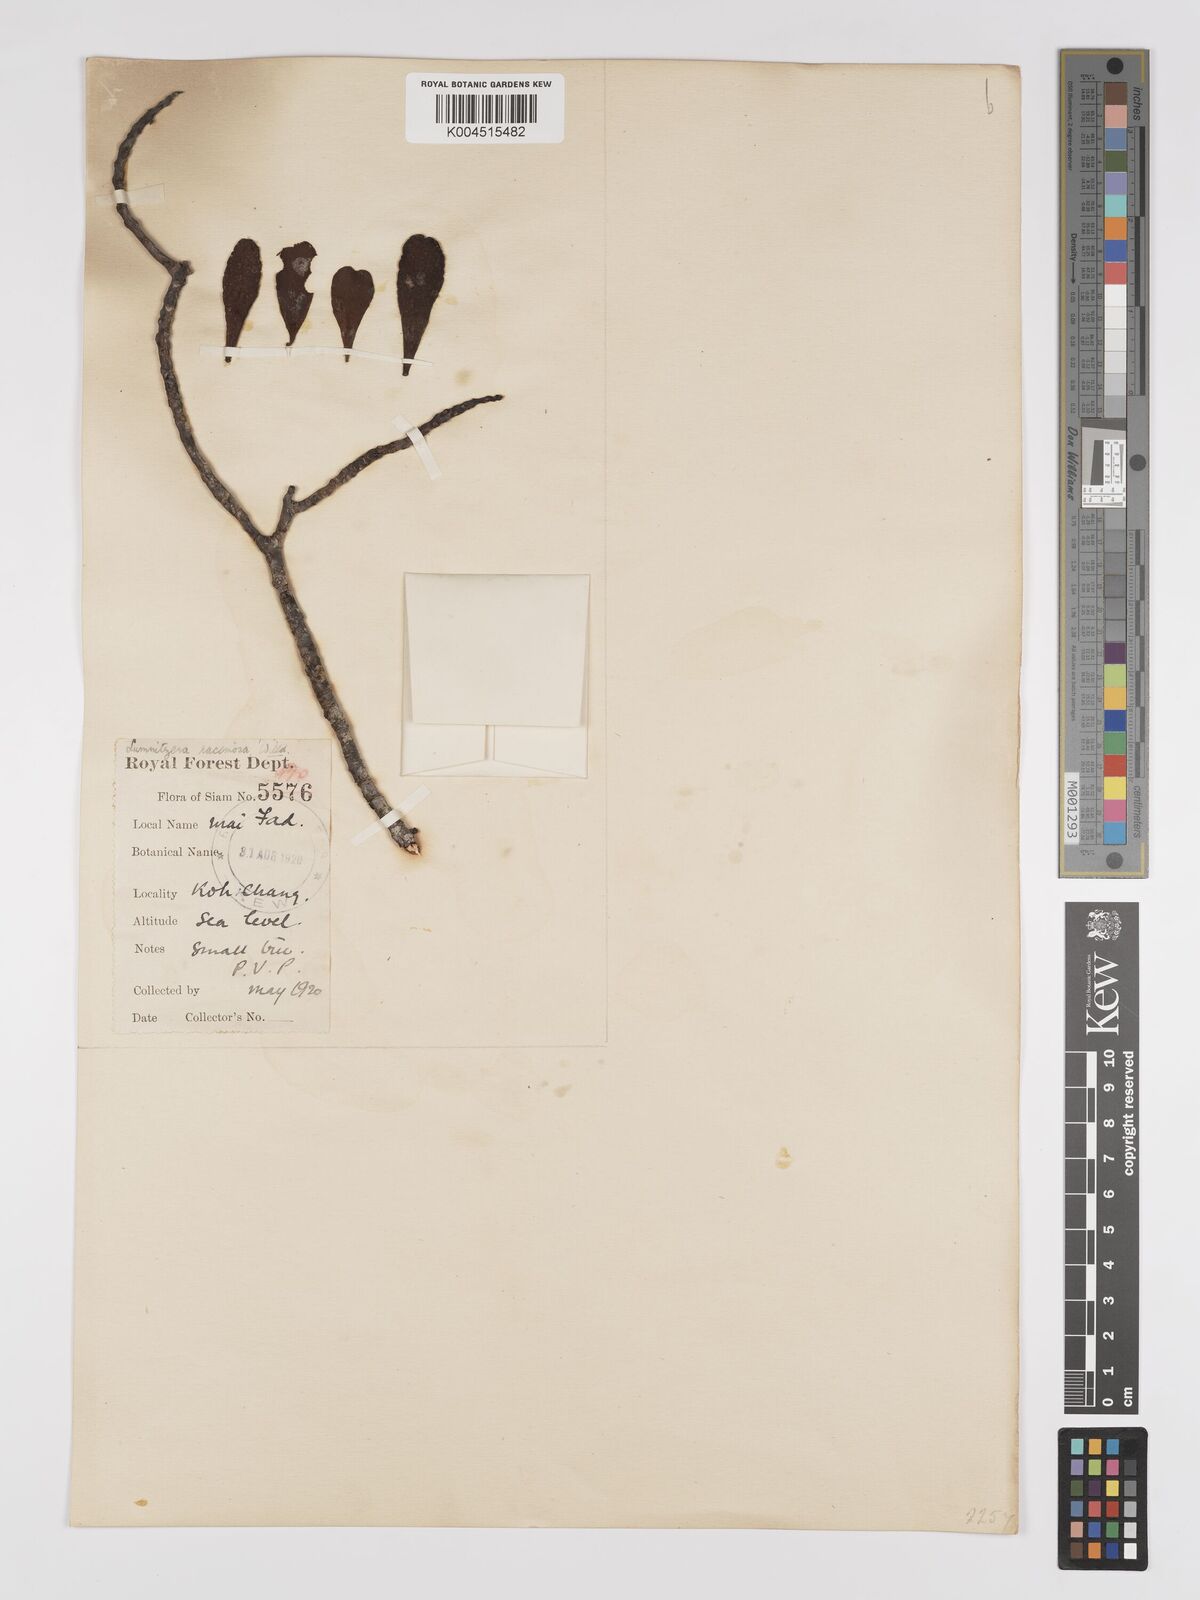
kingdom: Plantae
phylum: Tracheophyta
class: Magnoliopsida
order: Myrtales
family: Combretaceae
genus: Lumnitzera
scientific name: Lumnitzera racemosa
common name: White-flowered black mangrove
